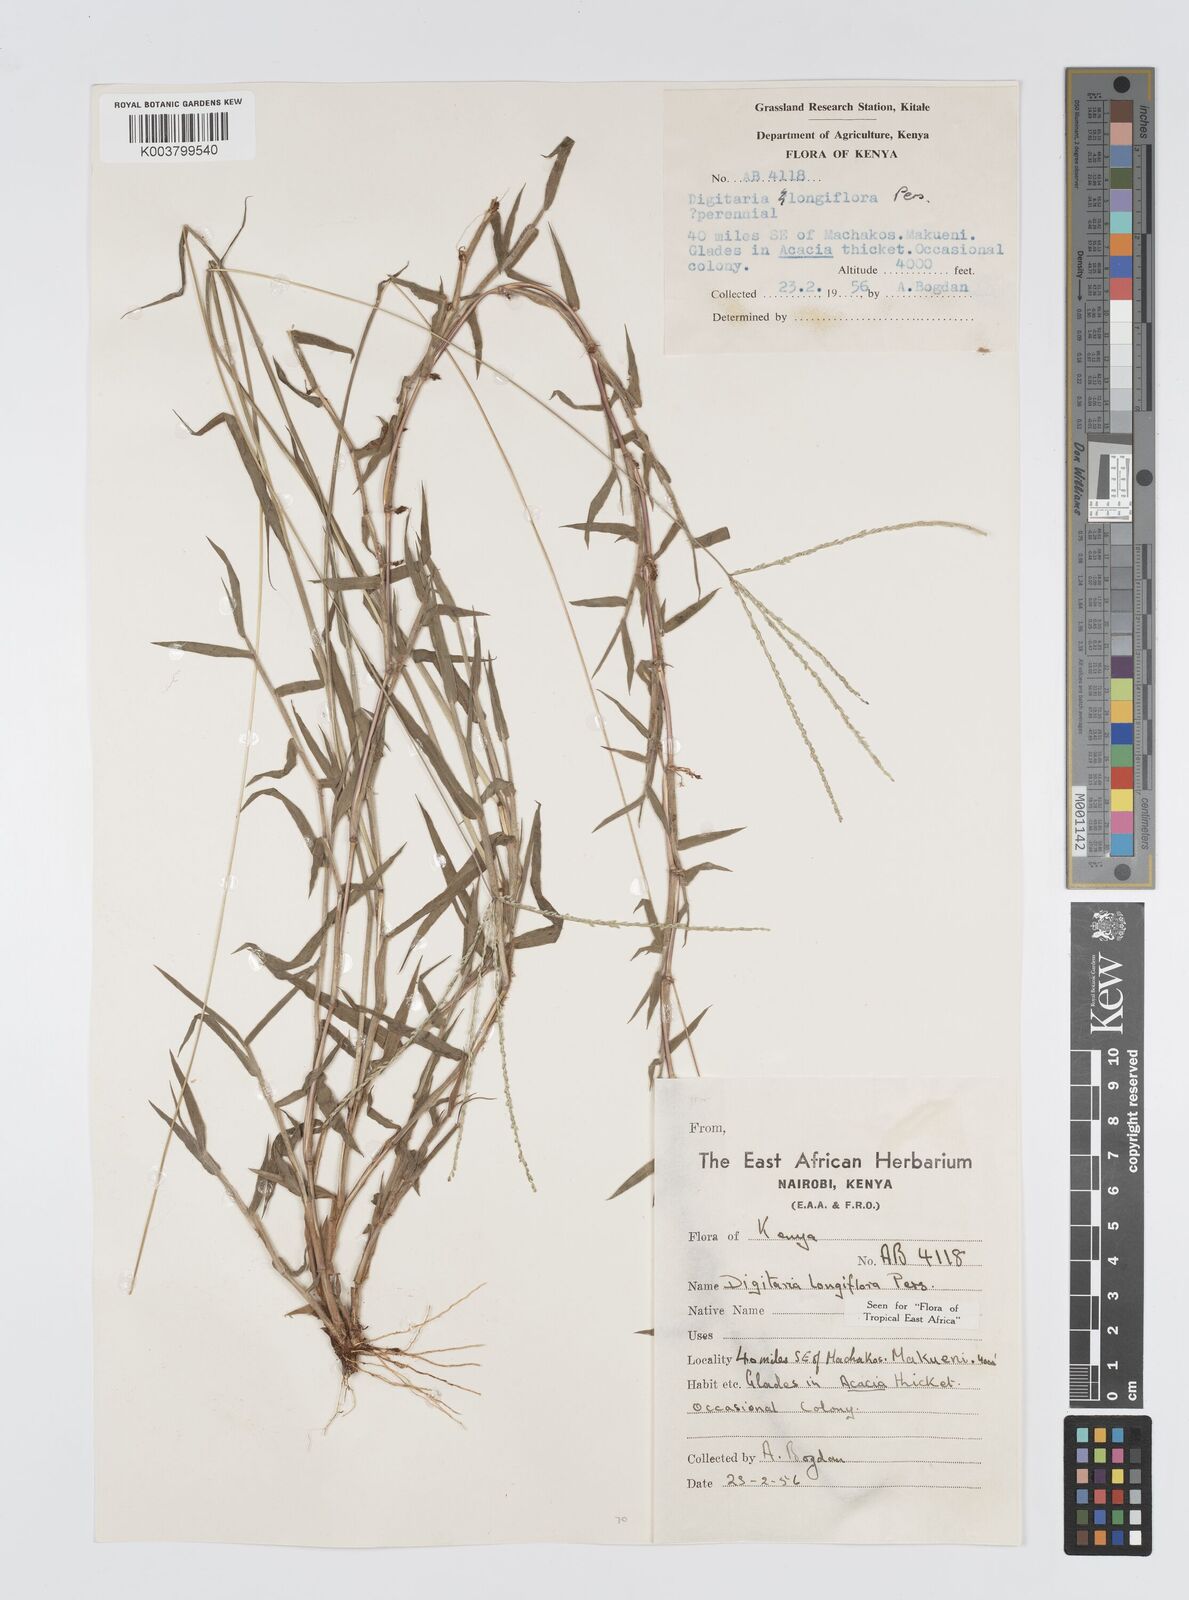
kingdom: Plantae
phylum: Tracheophyta
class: Liliopsida
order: Poales
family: Poaceae
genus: Digitaria
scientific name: Digitaria longiflora
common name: Wire crabgrass
